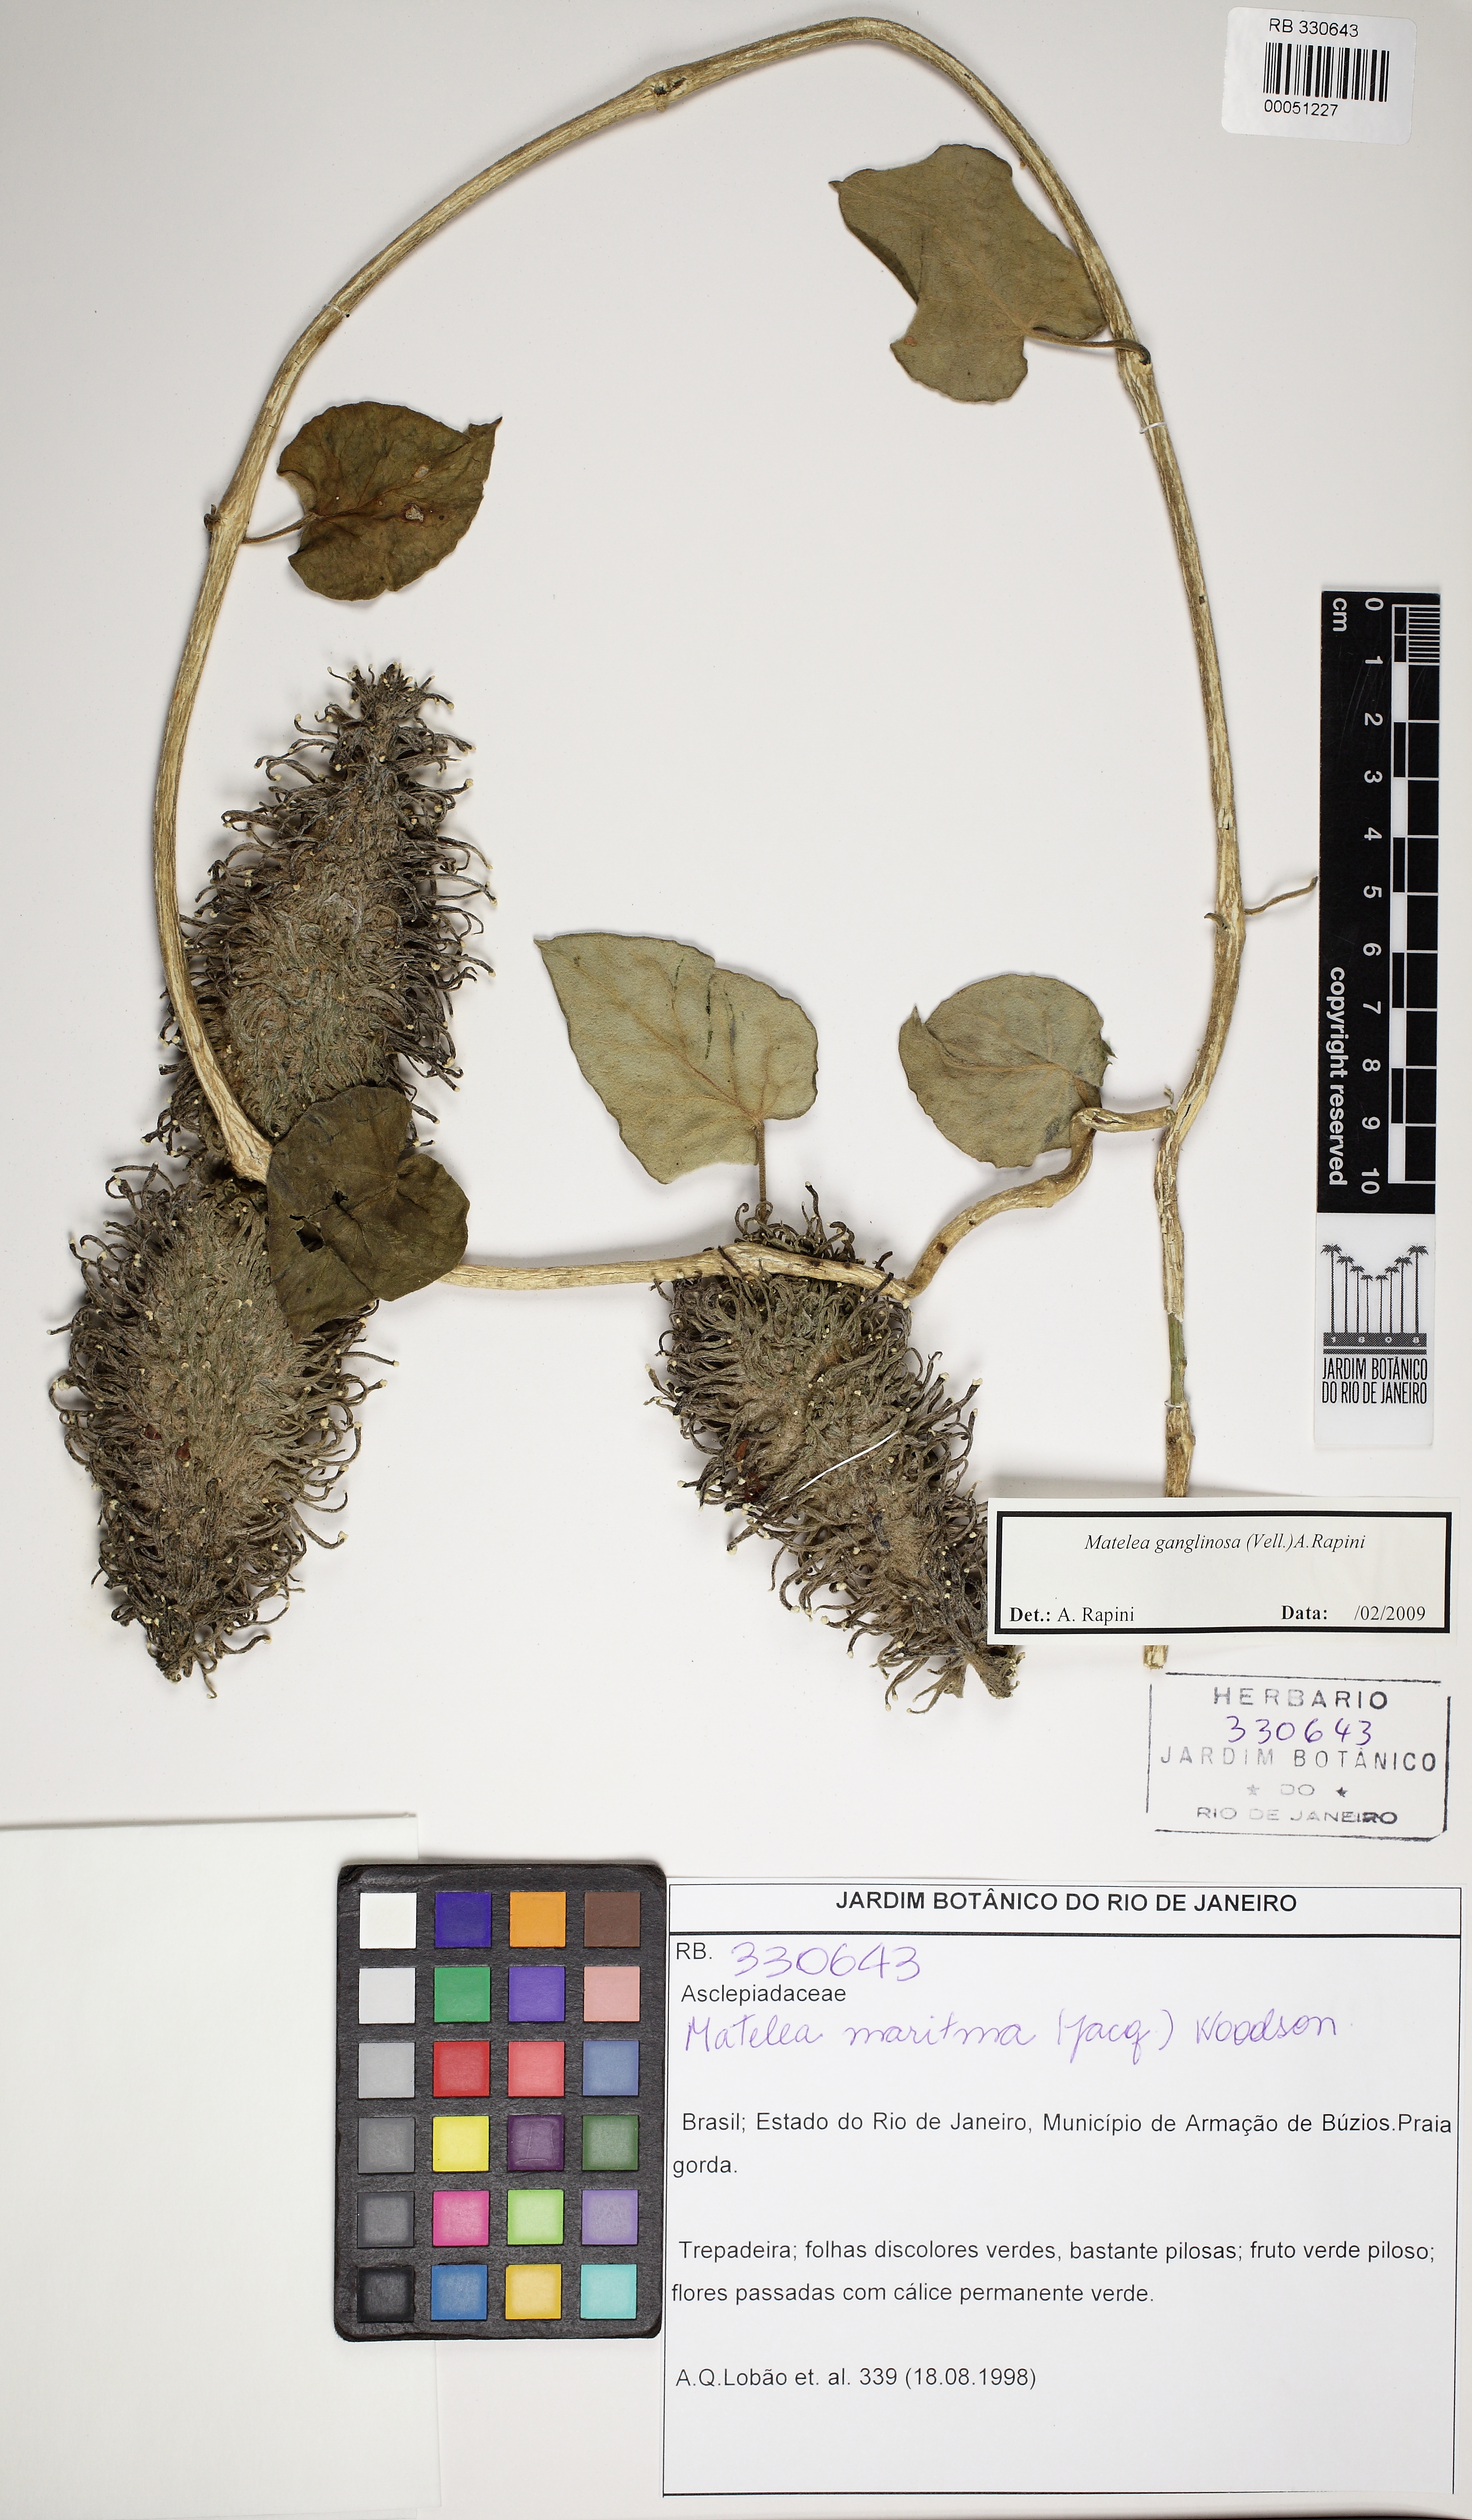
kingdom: Plantae
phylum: Tracheophyta
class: Magnoliopsida
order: Gentianales
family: Apocynaceae
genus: Ibatia
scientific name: Ibatia ganglinosa
